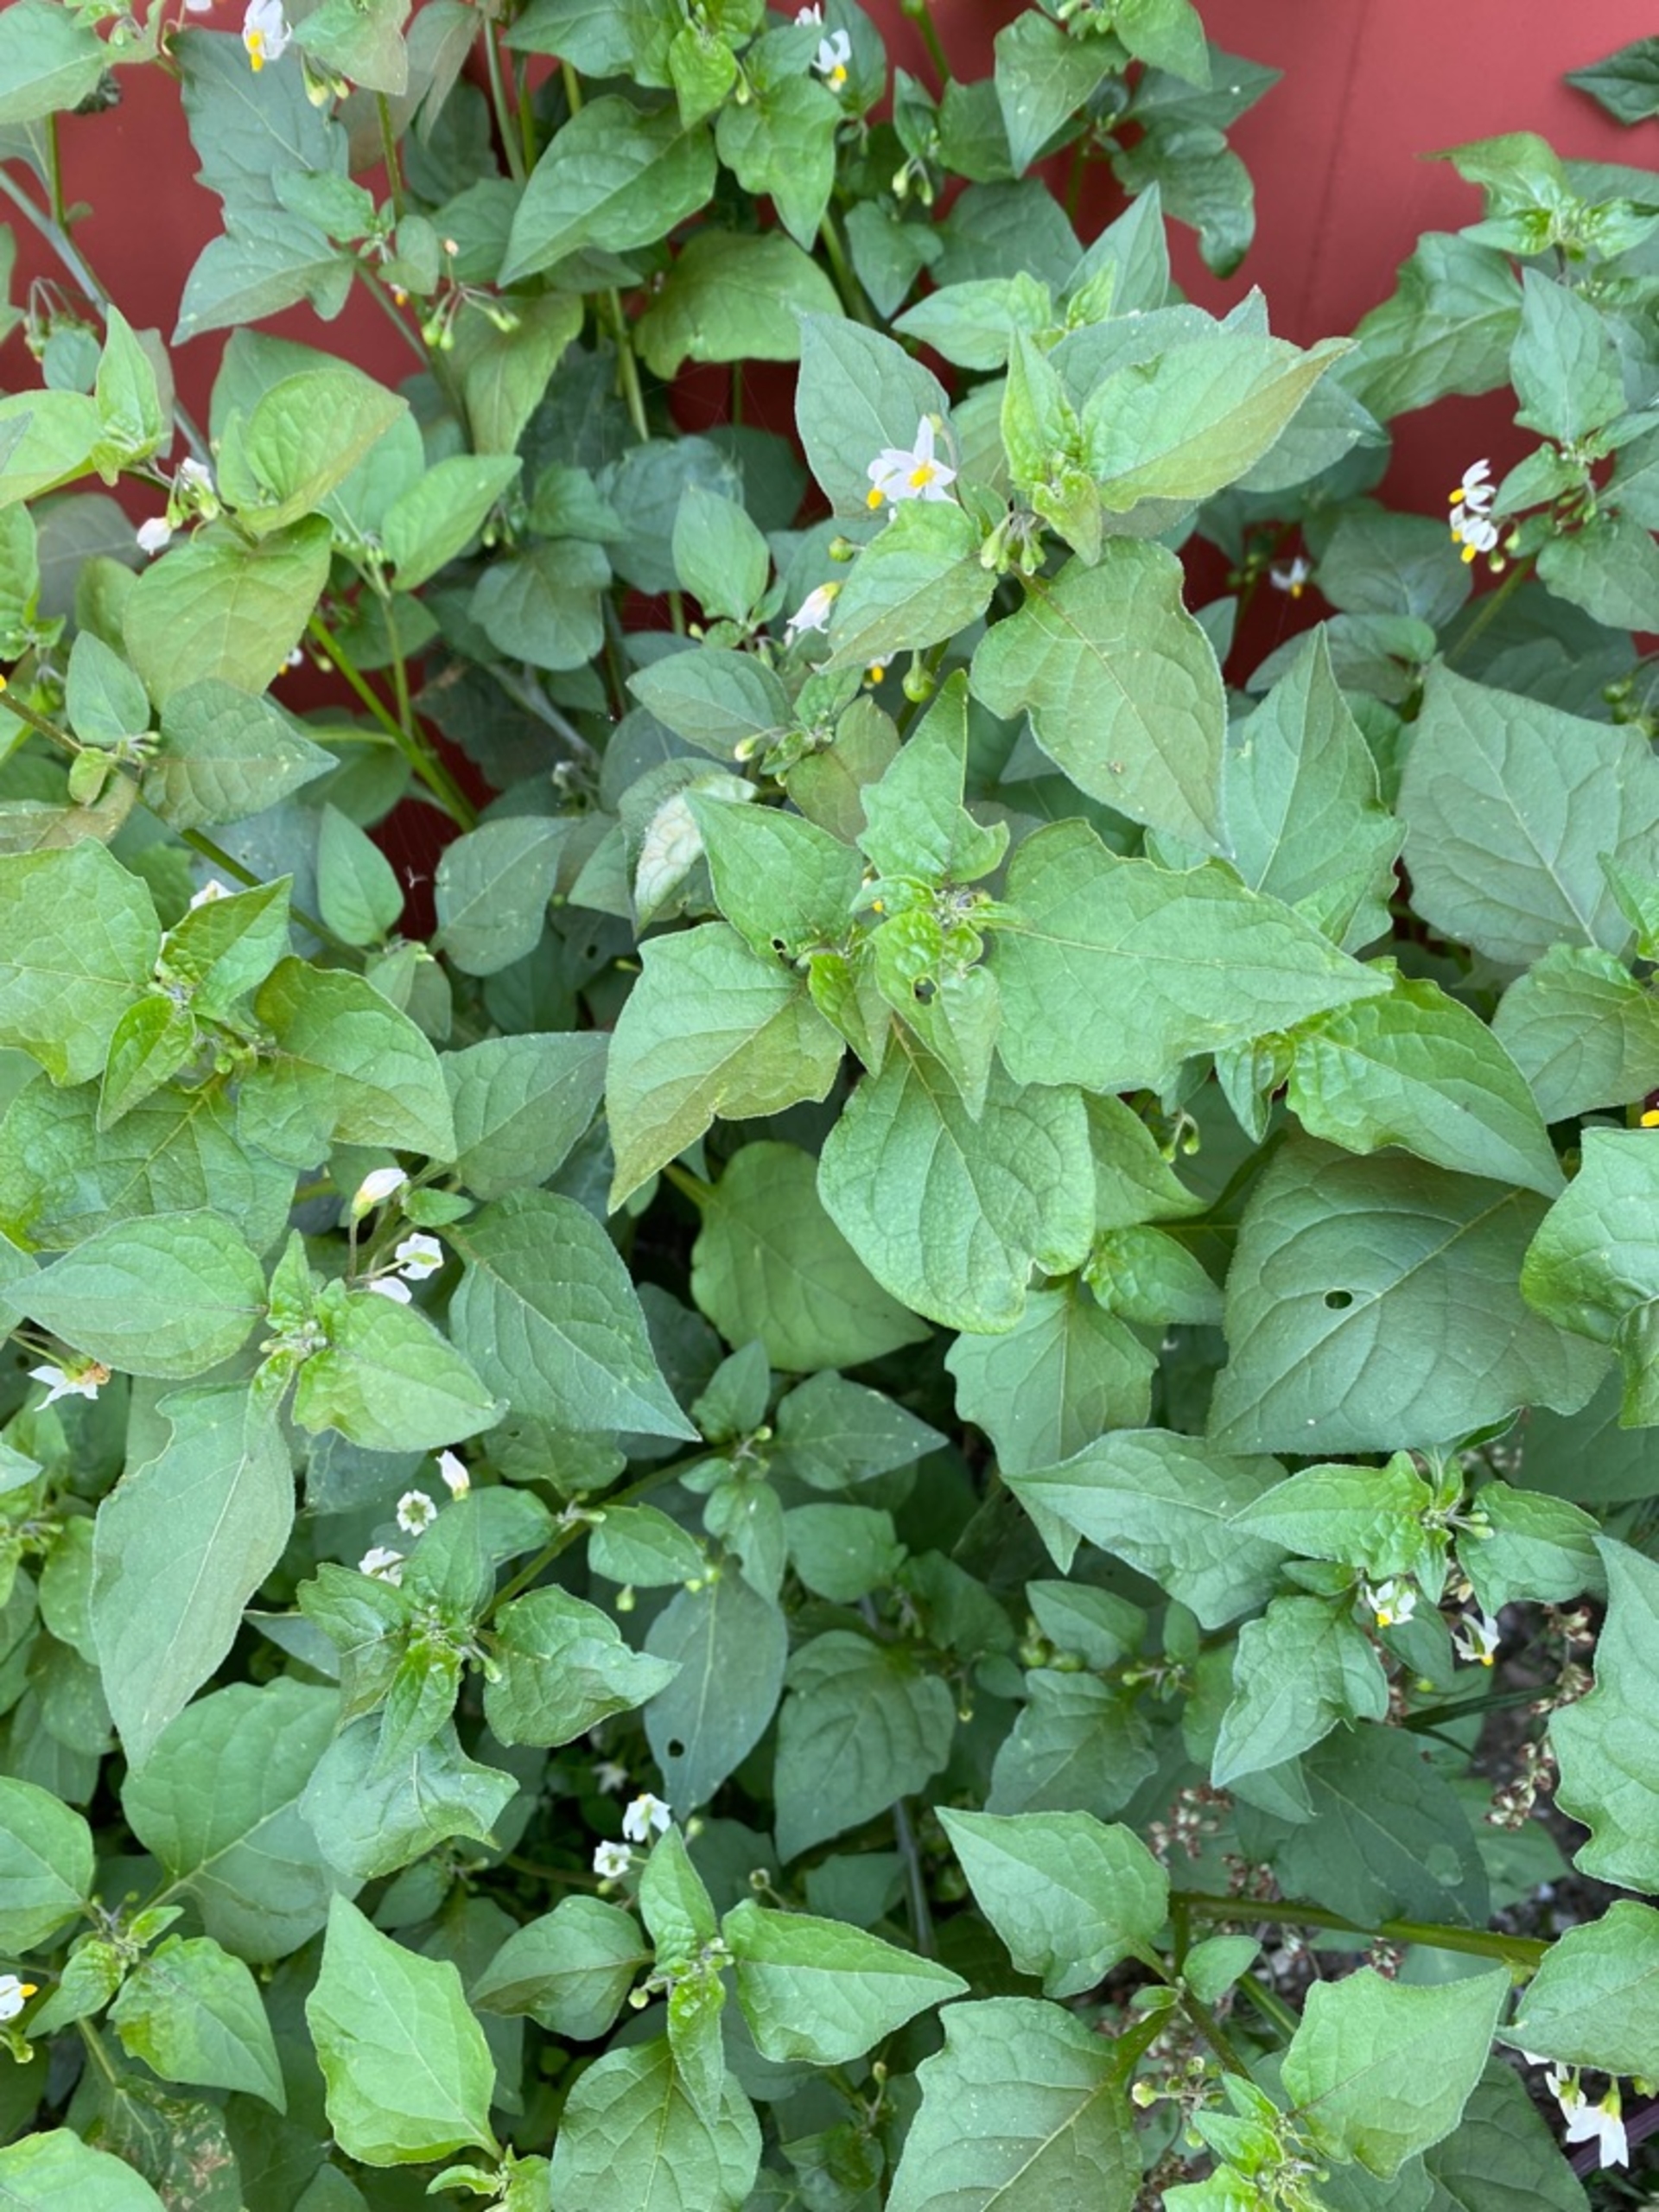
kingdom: Plantae
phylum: Tracheophyta
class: Magnoliopsida
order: Solanales
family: Solanaceae
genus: Solanum
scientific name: Solanum nigrum
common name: Sort natskygge (underart)
